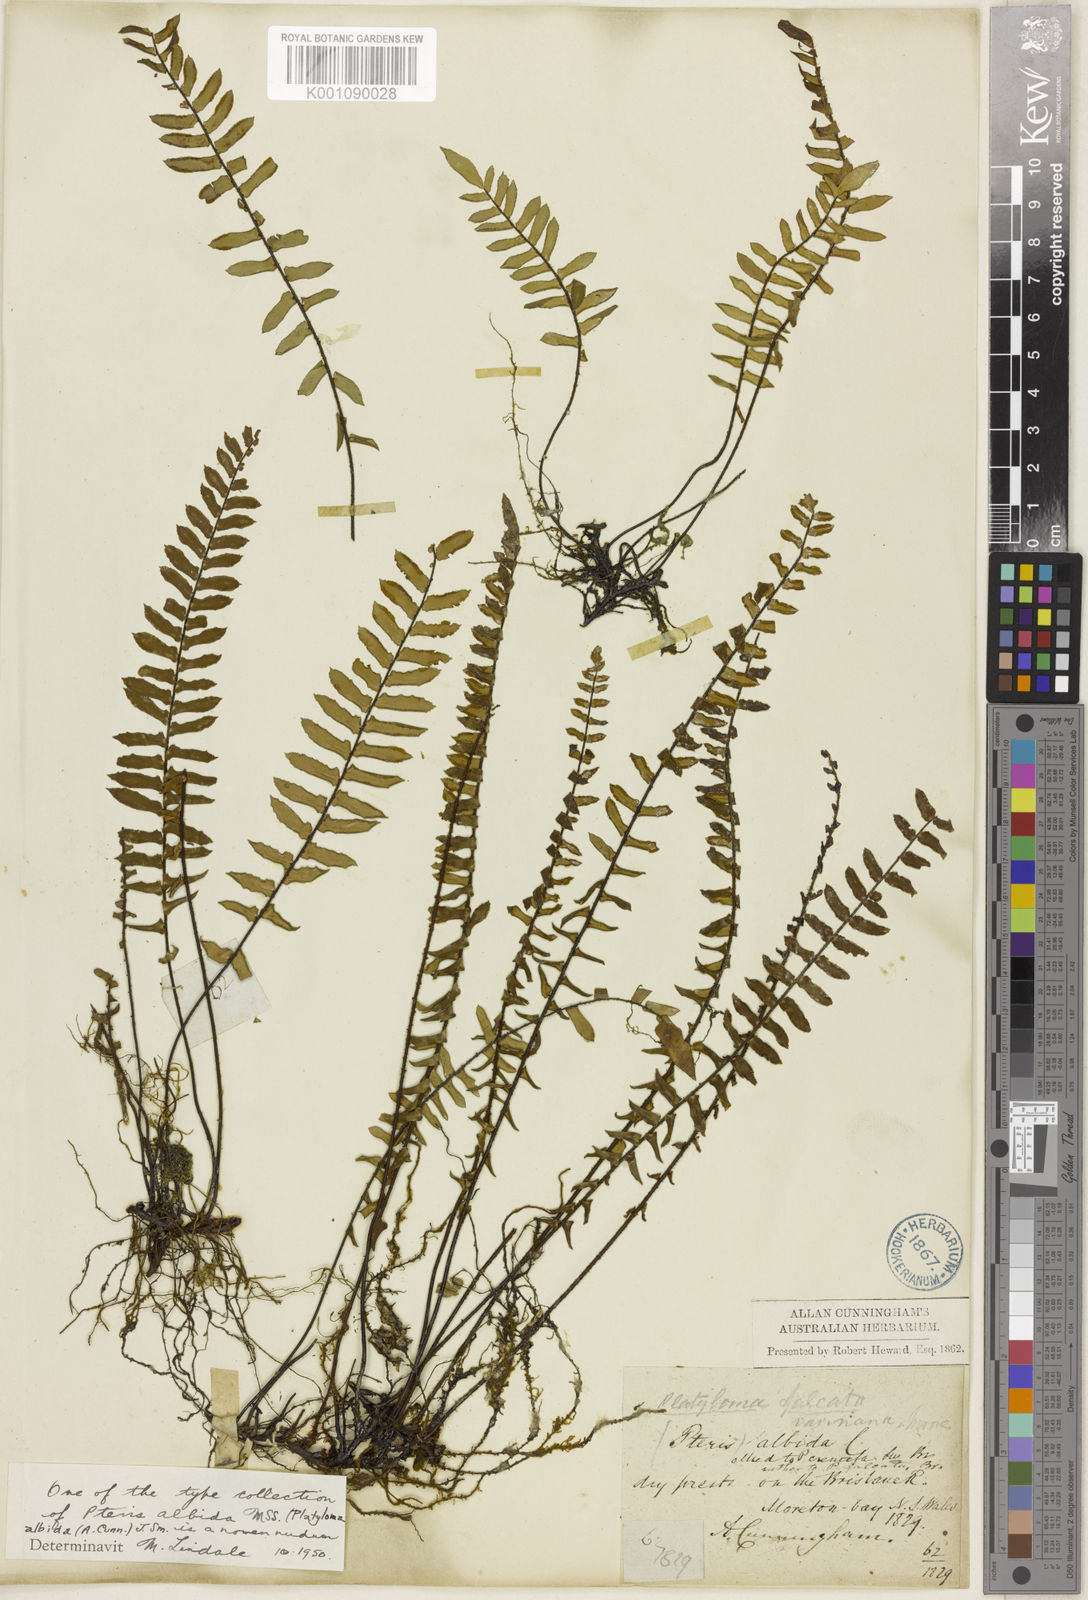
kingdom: Plantae
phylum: Tracheophyta
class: Polypodiopsida
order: Polypodiales
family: Pteridaceae
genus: Pellaea
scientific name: Pellaea
